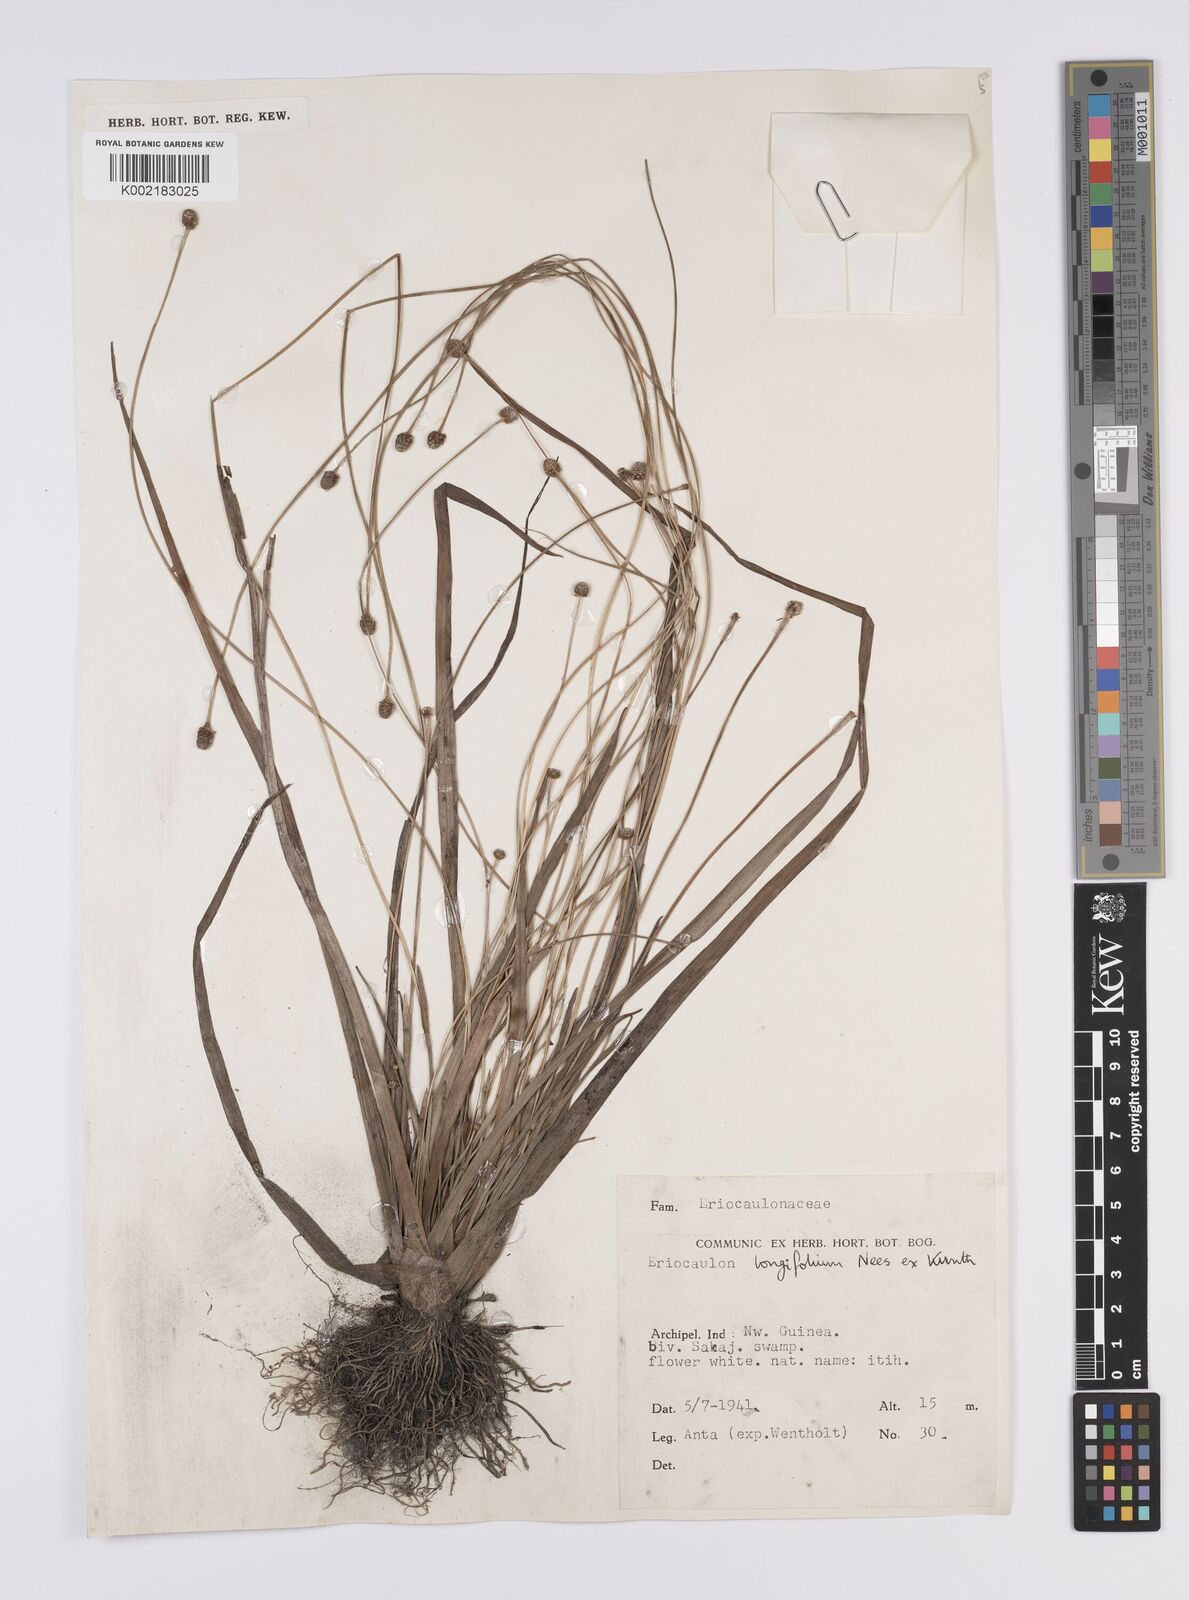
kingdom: Plantae
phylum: Tracheophyta
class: Liliopsida
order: Poales
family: Eriocaulaceae
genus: Eriocaulon
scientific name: Eriocaulon willdenovianum
